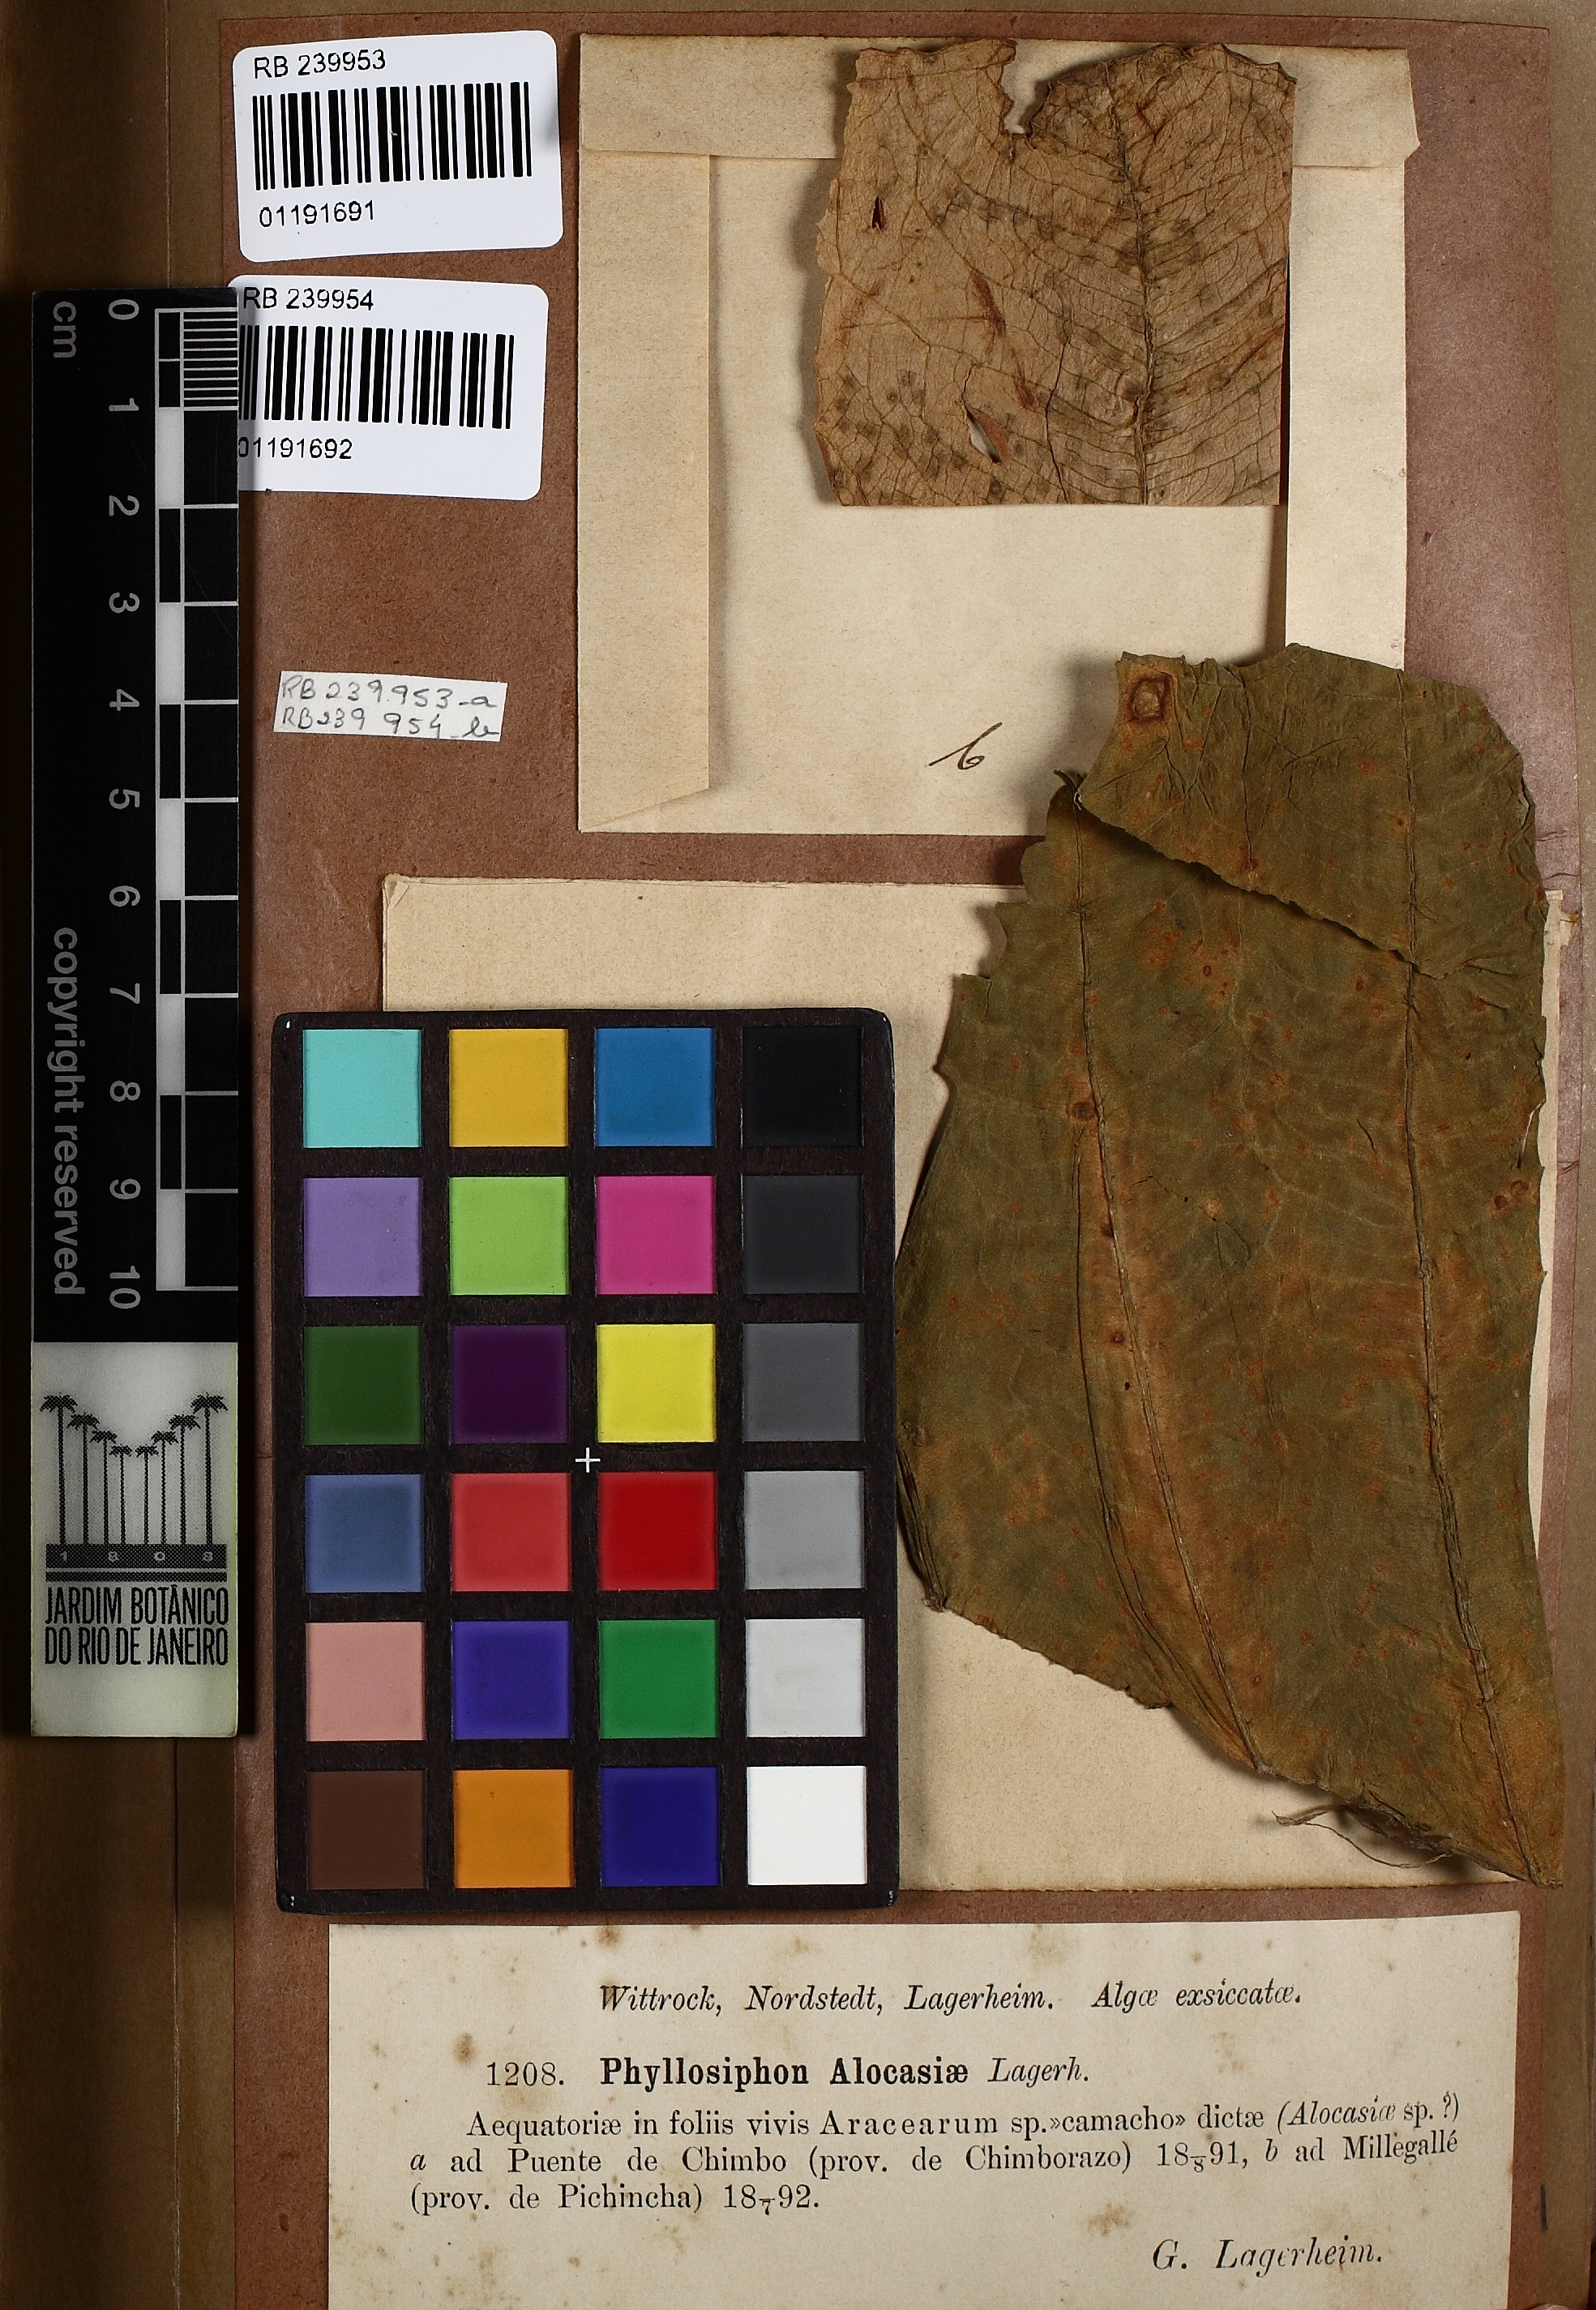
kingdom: Chromista
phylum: Ochrophyta
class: Xanthophyceae
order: Phyllosiphonales
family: Phyllosiphonaceae
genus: Phyllosiphon
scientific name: Phyllosiphon
